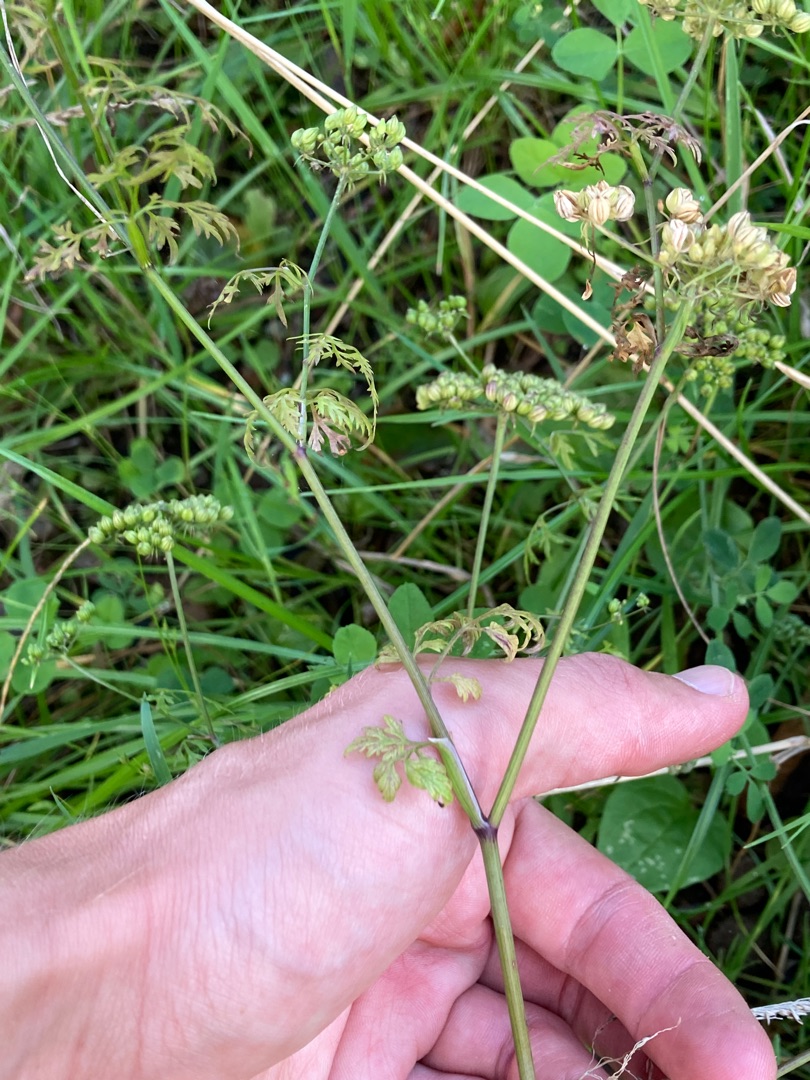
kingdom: Plantae
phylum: Tracheophyta
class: Magnoliopsida
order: Apiales
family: Apiaceae
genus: Aethusa
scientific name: Aethusa cynapium
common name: Hundepersille
